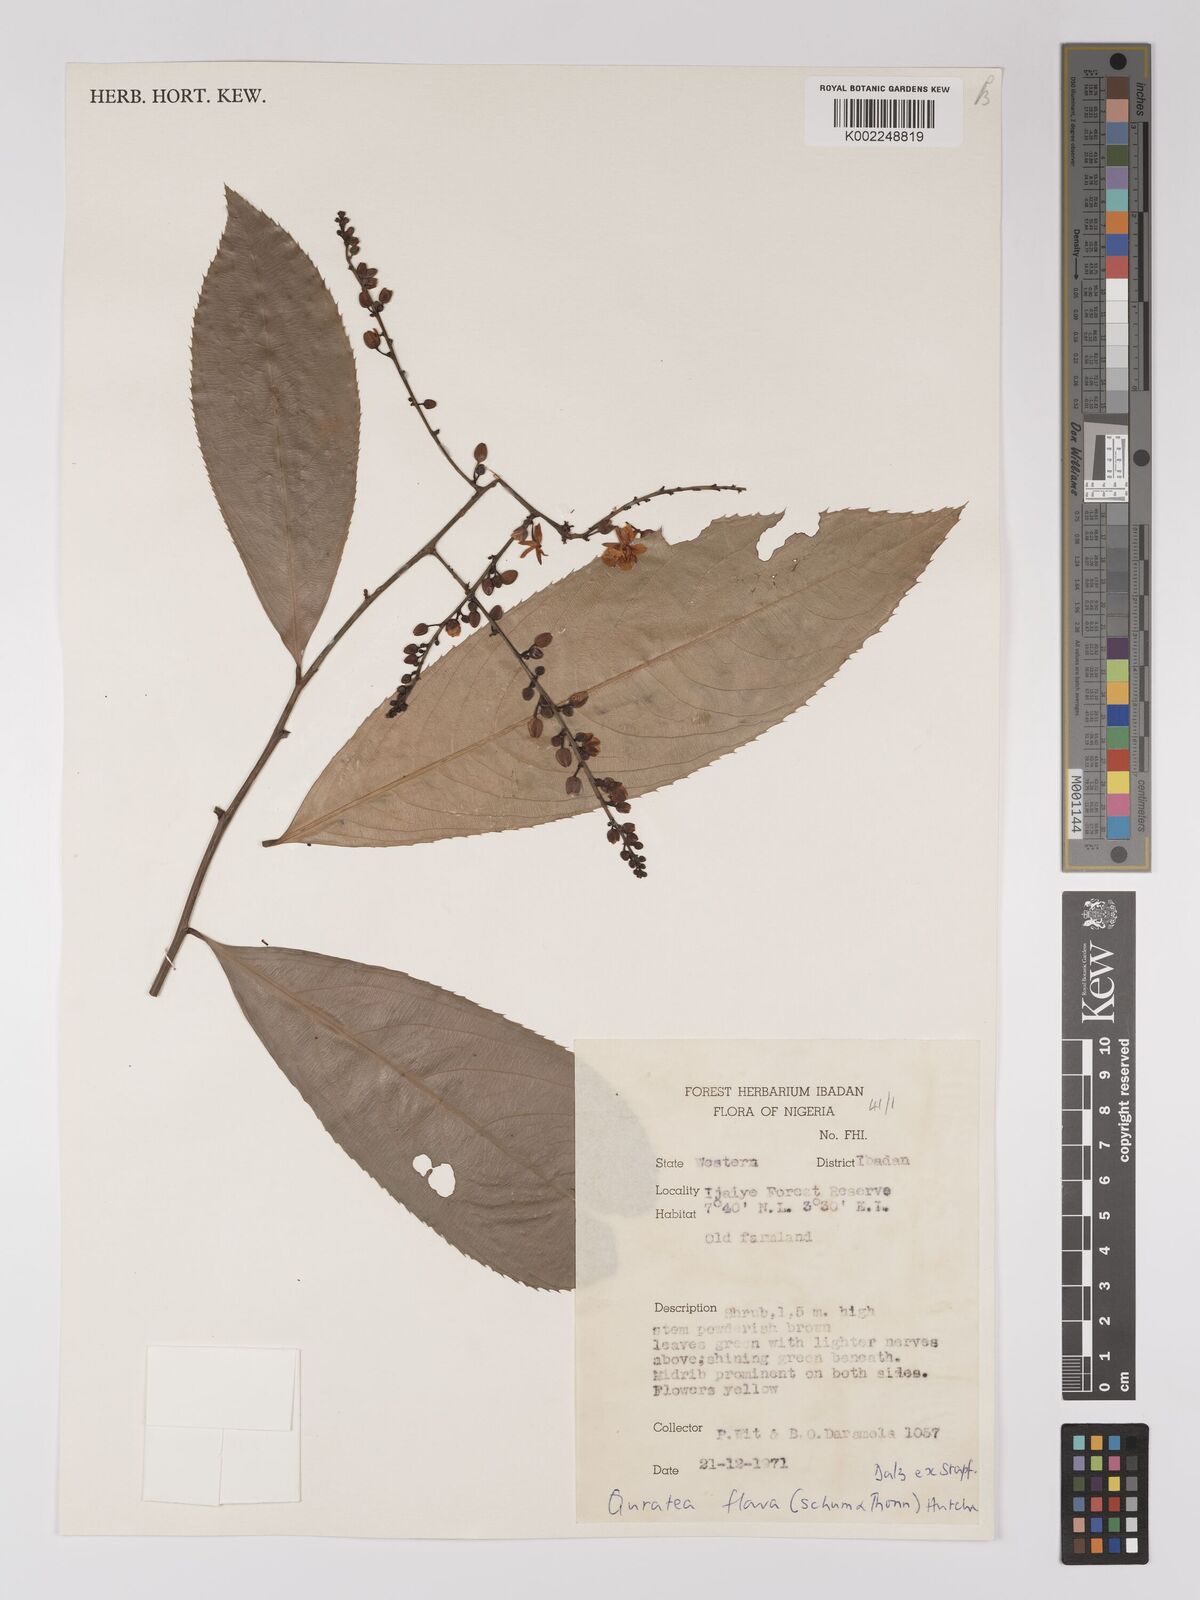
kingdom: Plantae
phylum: Tracheophyta
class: Magnoliopsida
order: Malpighiales
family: Ochnaceae
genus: Campylospermum
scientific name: Campylospermum flavum
